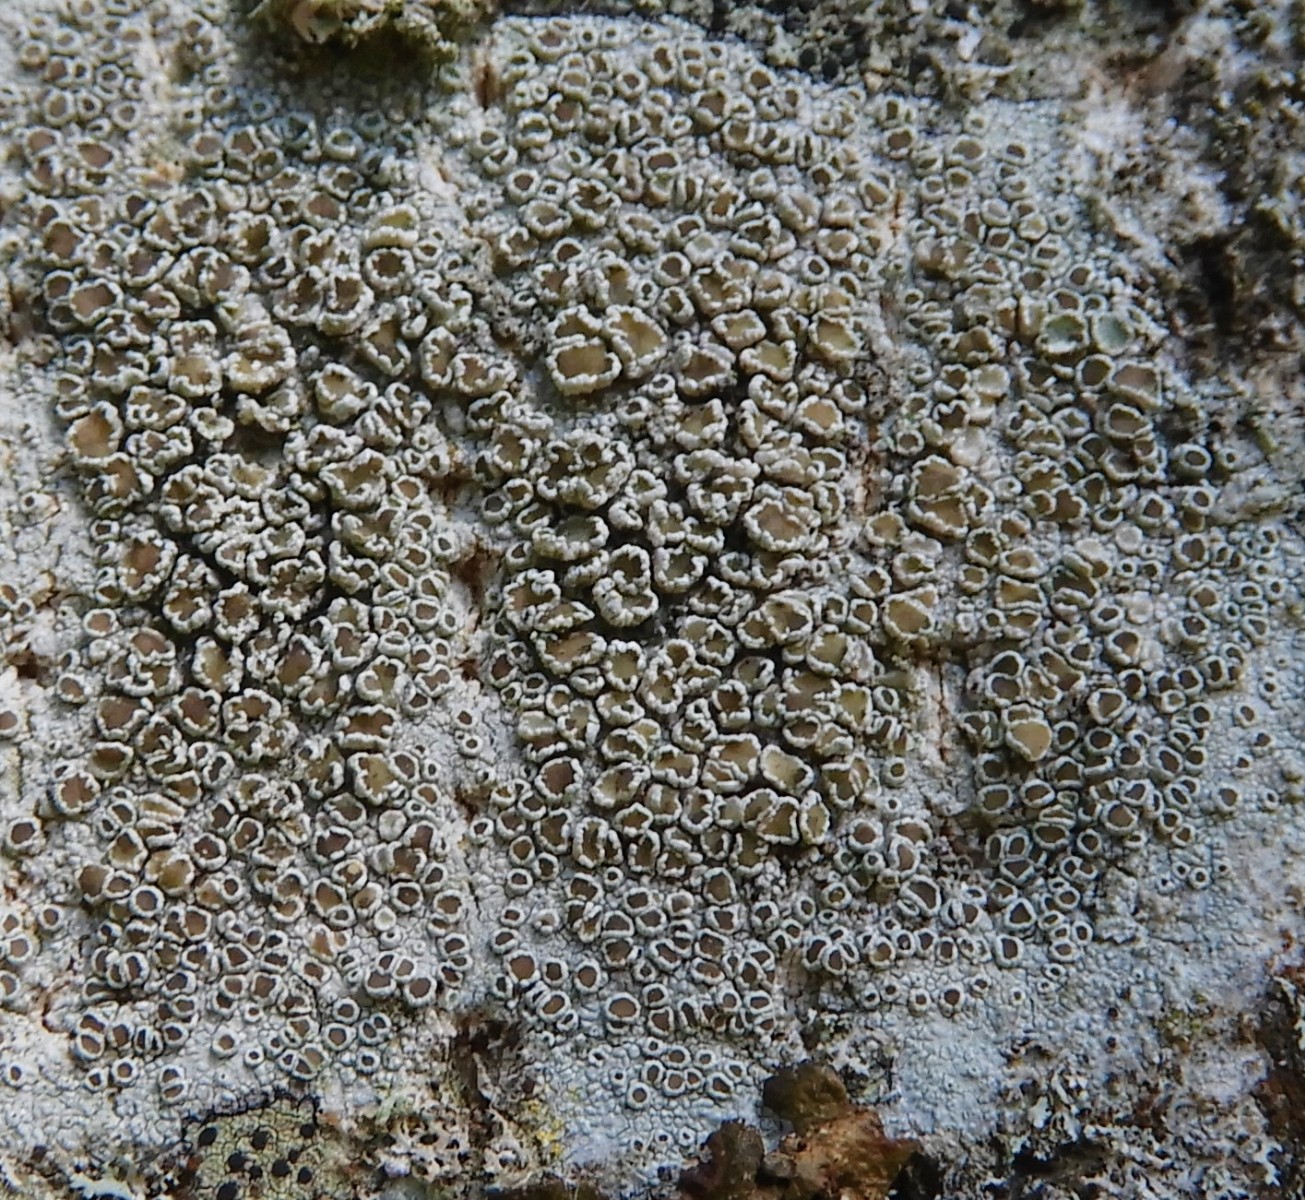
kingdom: Fungi
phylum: Ascomycota
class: Lecanoromycetes
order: Lecanorales
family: Lecanoraceae
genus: Lecanora
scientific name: Lecanora chlarotera
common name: brun kantskivelav
